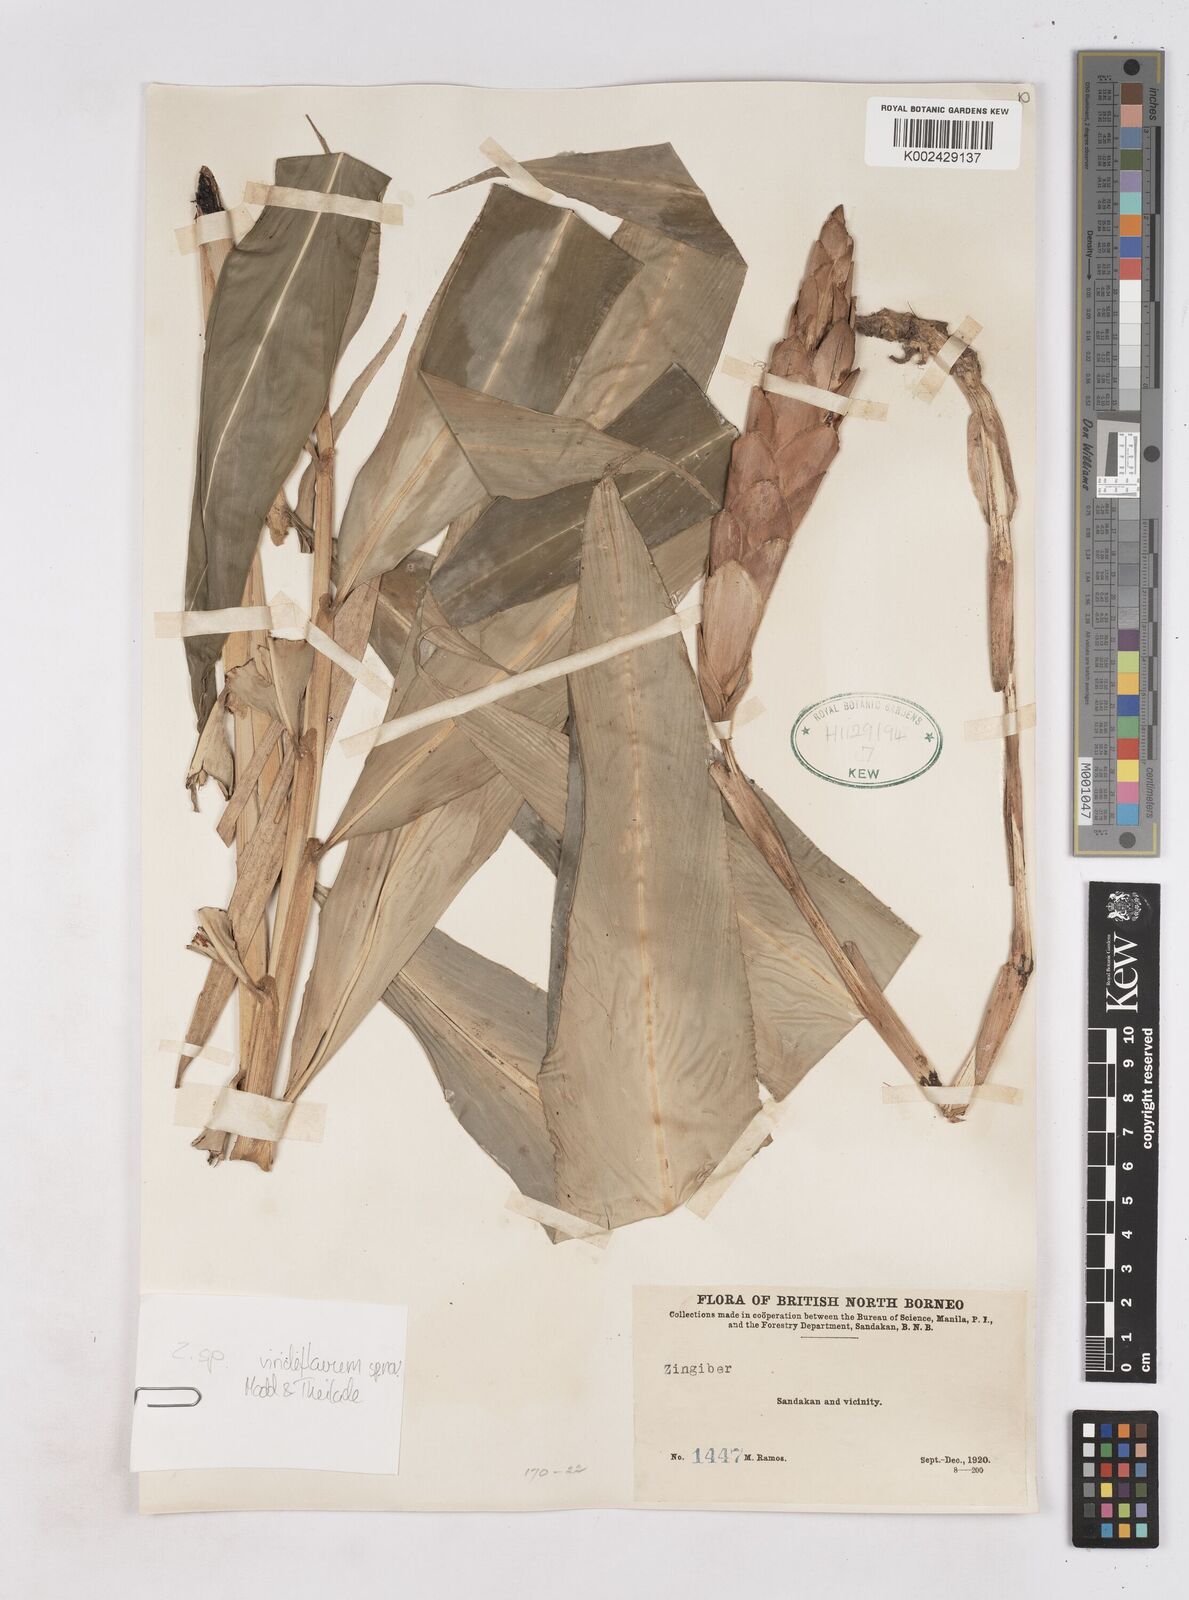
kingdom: Plantae
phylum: Tracheophyta
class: Liliopsida
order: Zingiberales
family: Zingiberaceae
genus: Zingiber
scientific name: Zingiber viridiflavum
